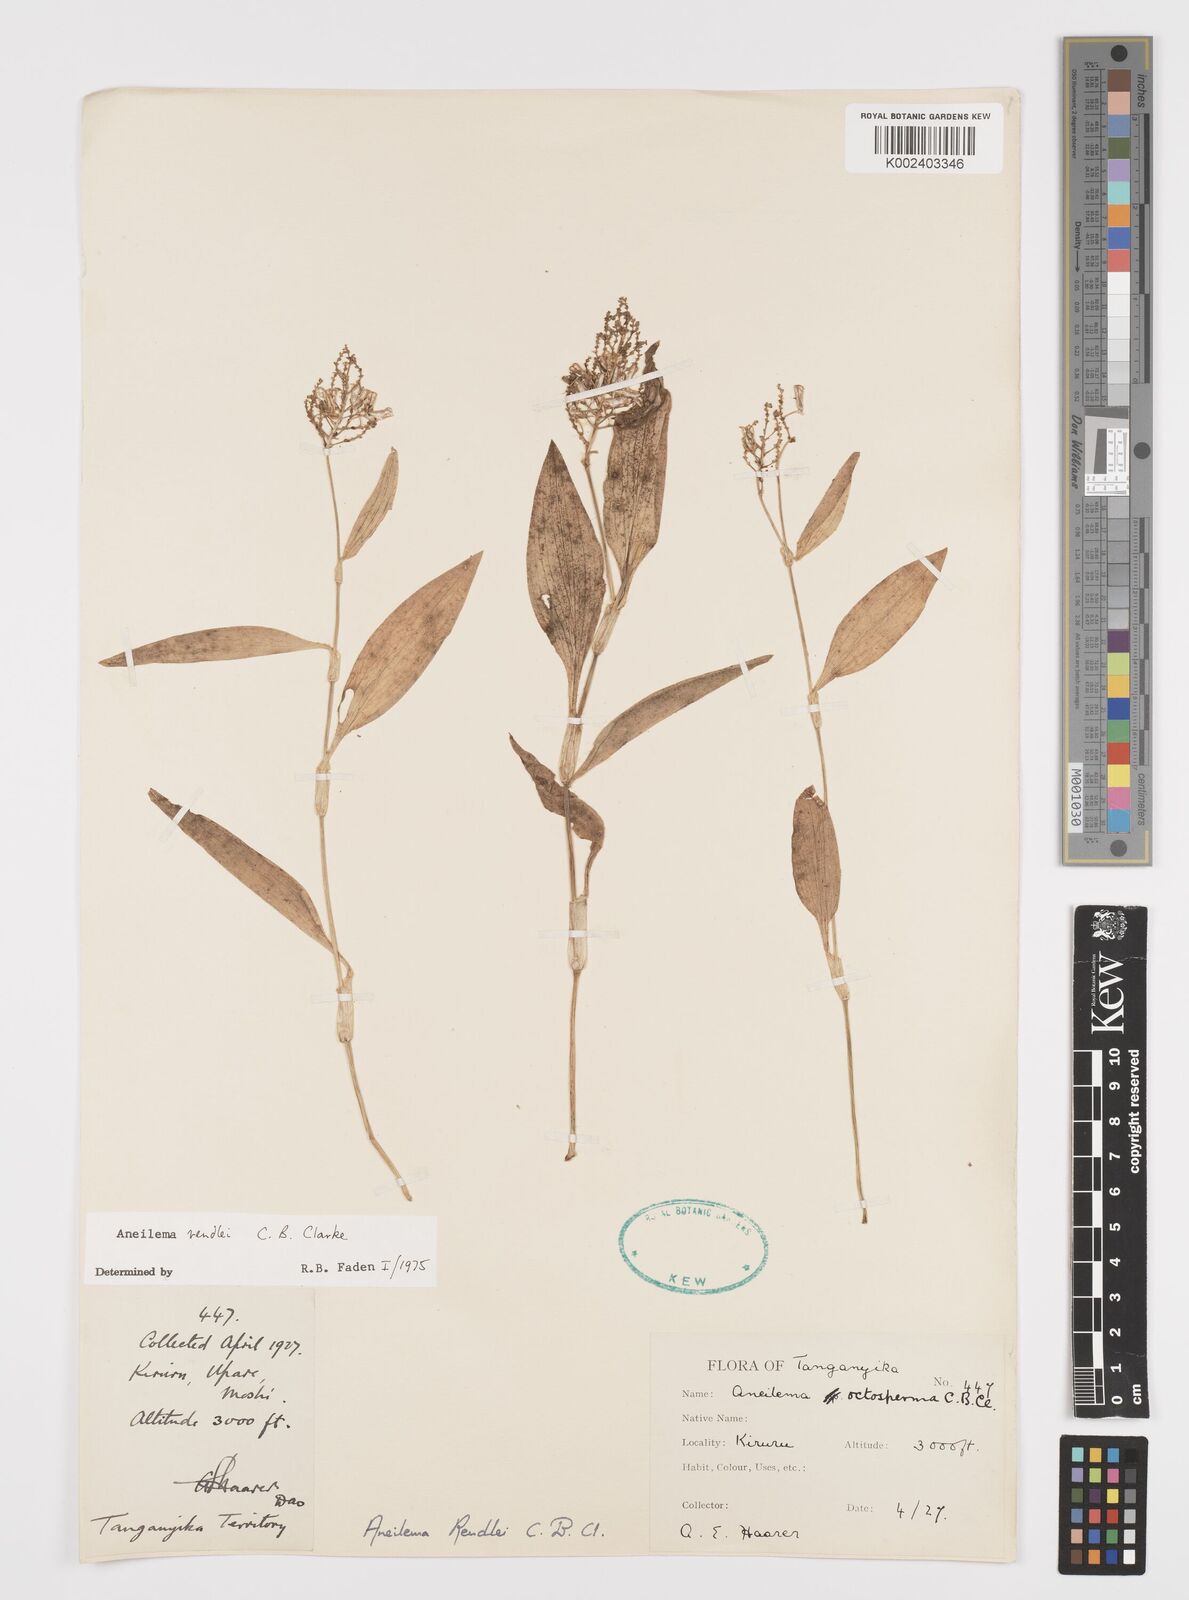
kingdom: Plantae
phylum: Tracheophyta
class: Liliopsida
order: Commelinales
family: Commelinaceae
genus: Aneilema
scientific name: Aneilema rendlei
